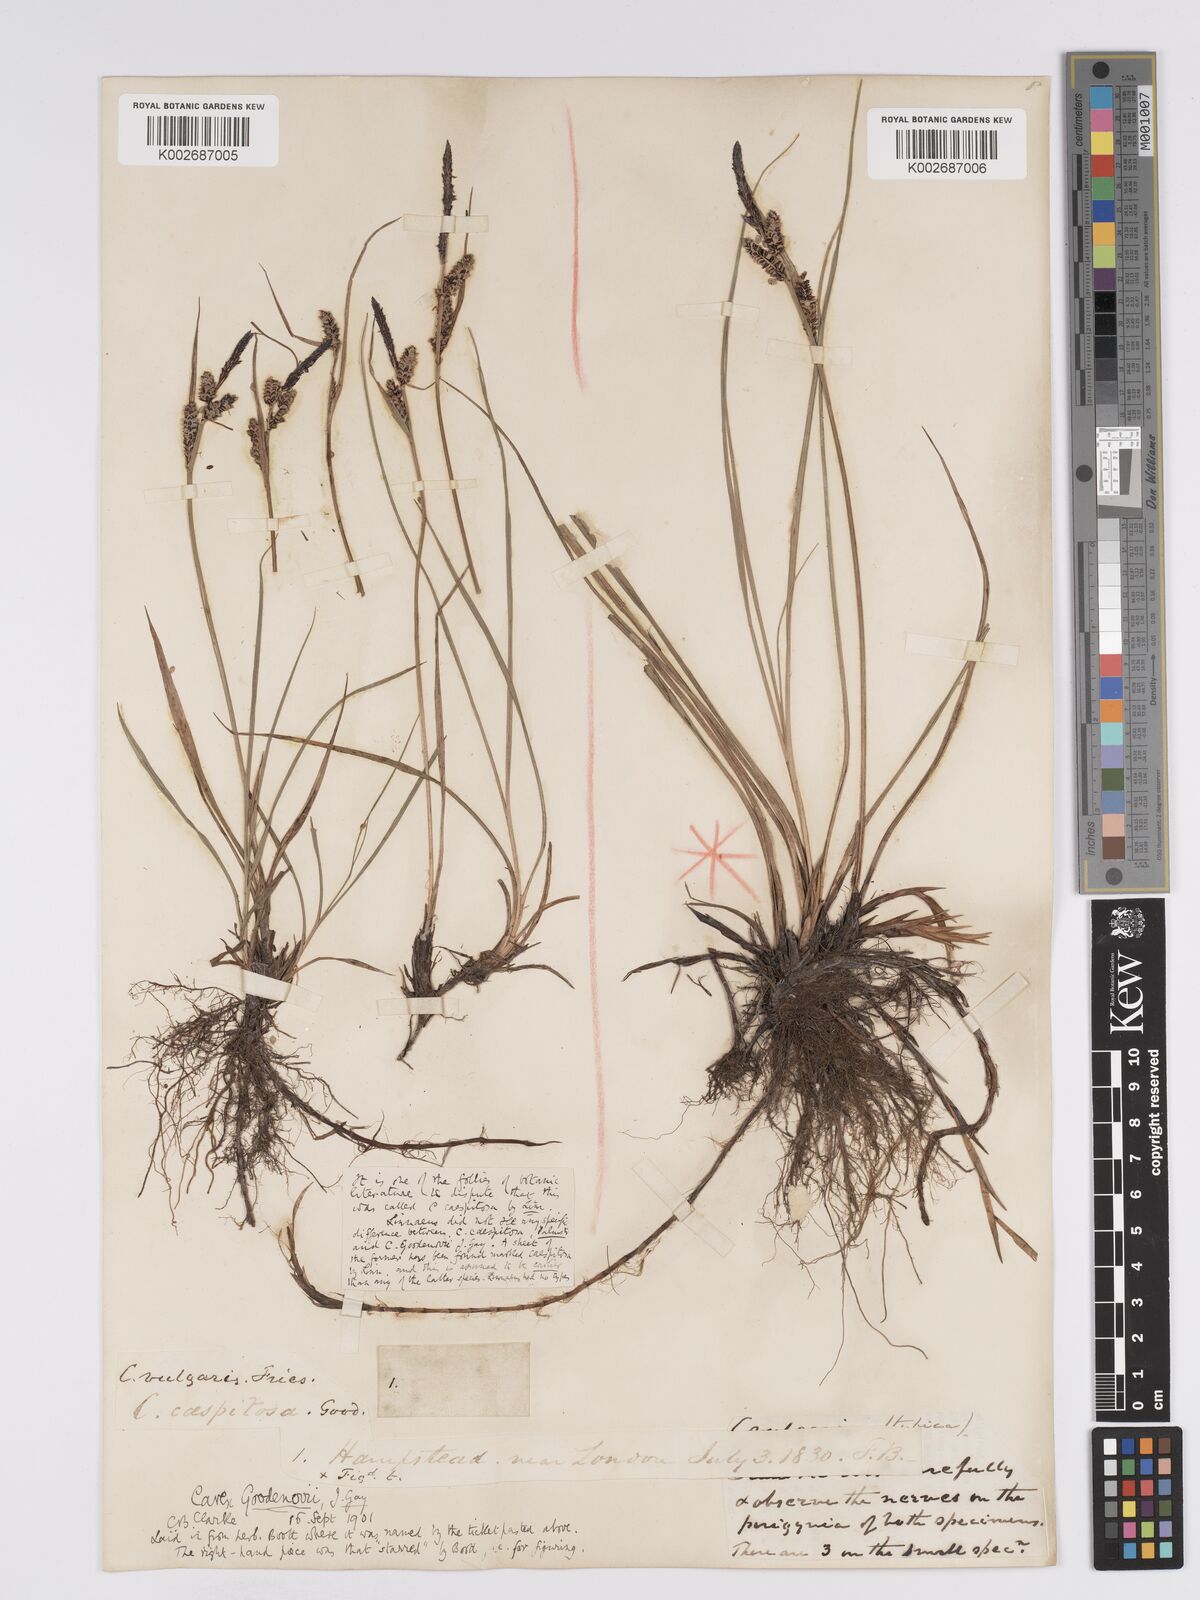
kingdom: Plantae
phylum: Tracheophyta
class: Liliopsida
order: Poales
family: Cyperaceae
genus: Carex
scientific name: Carex nigra
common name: Common sedge
